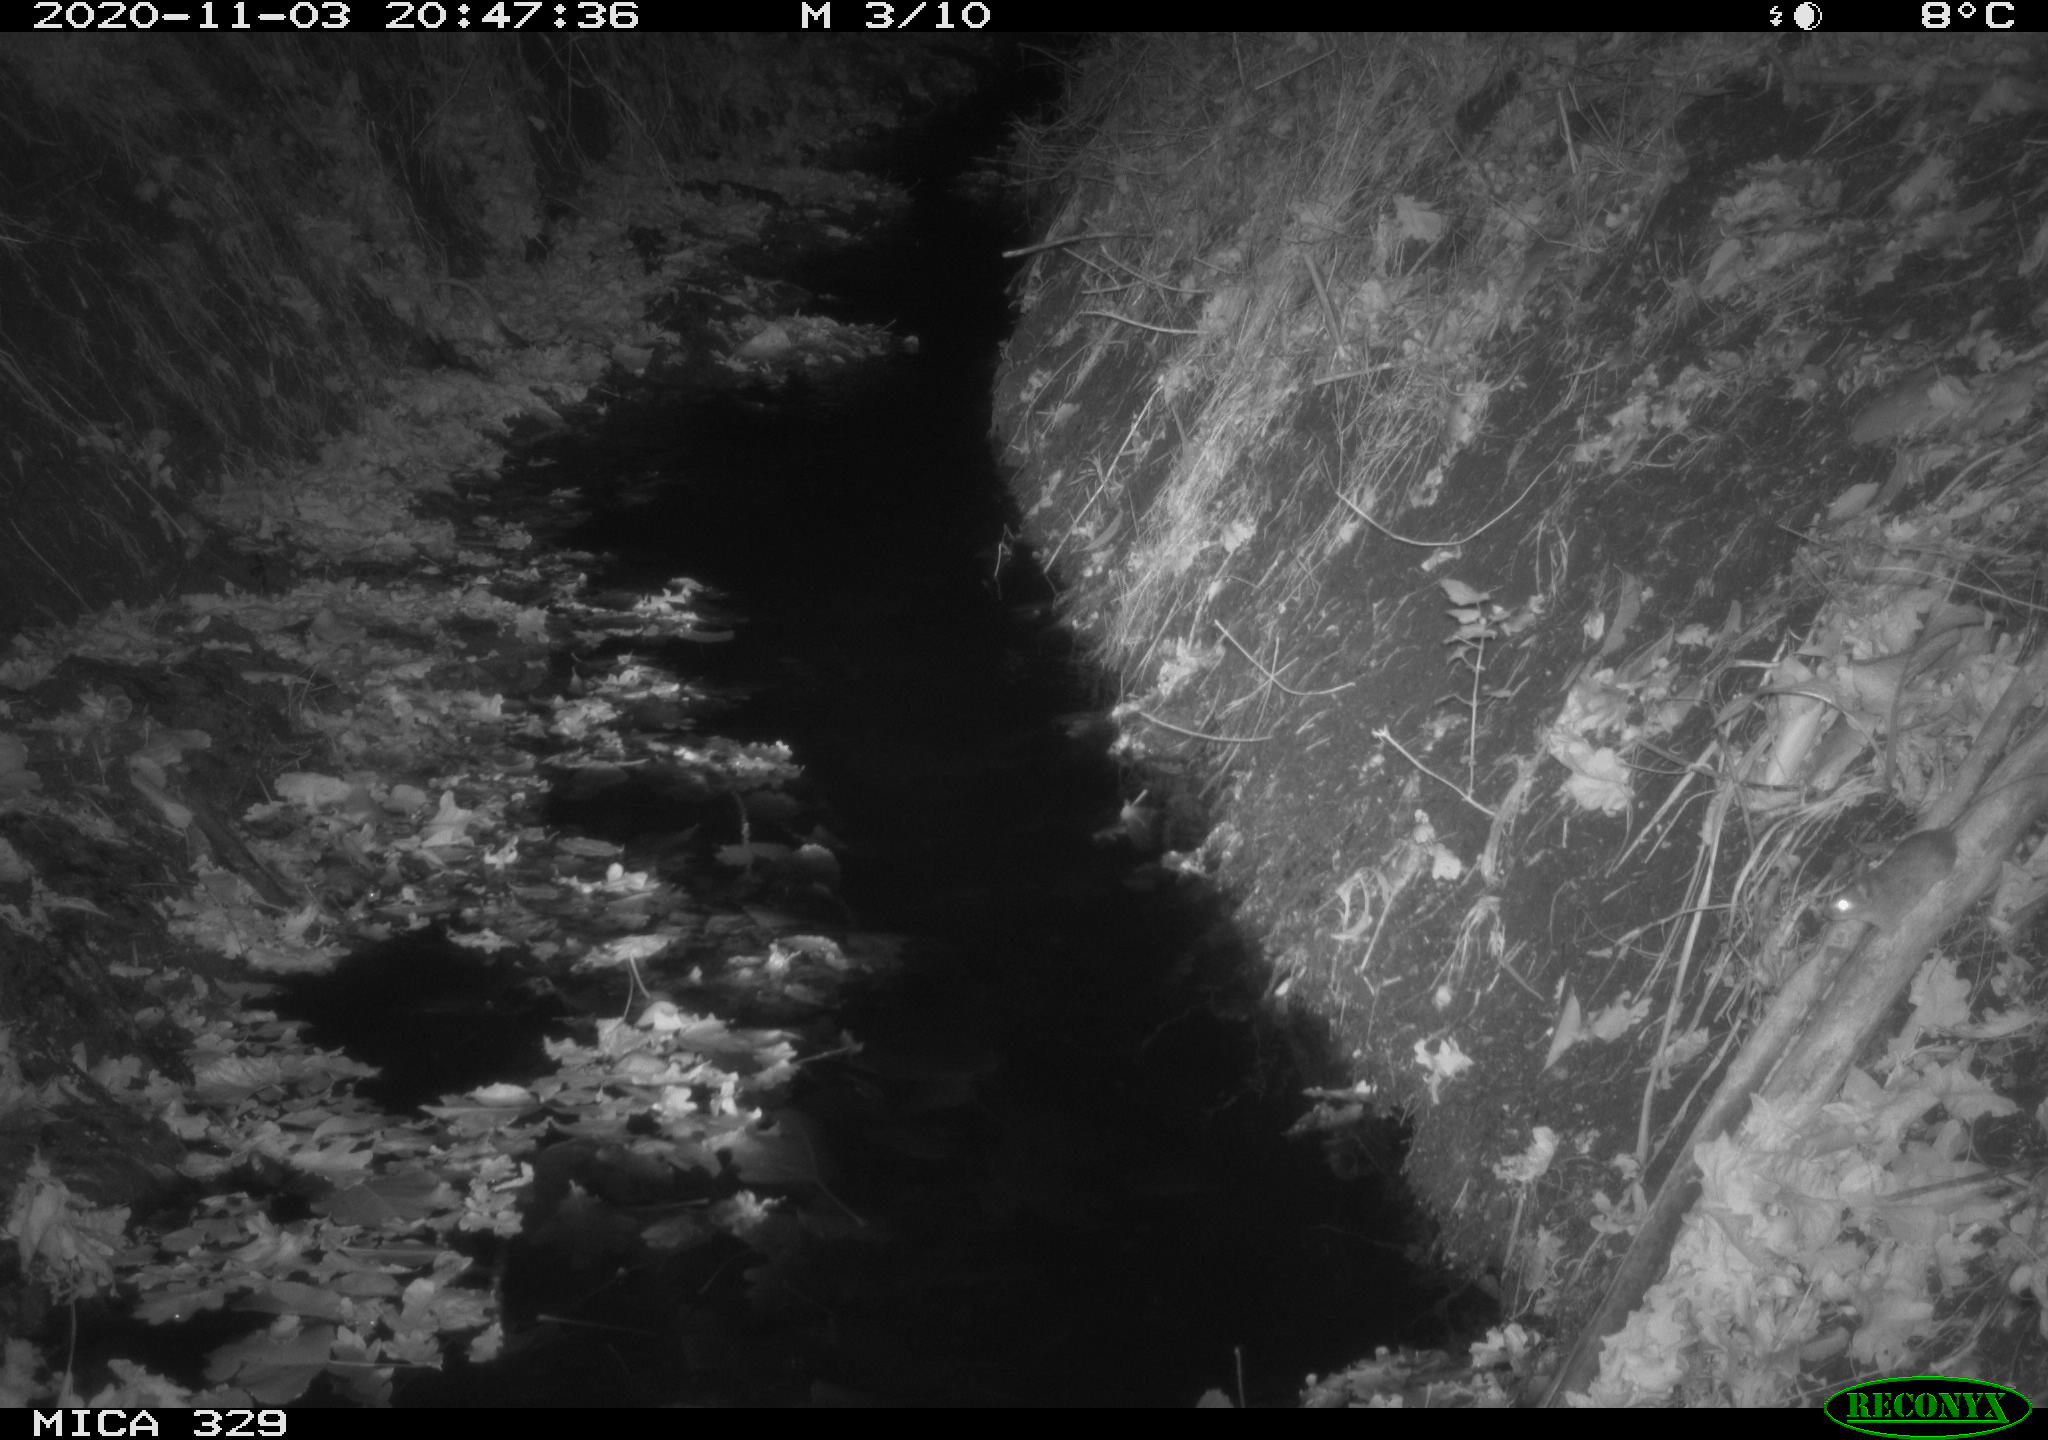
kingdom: Animalia
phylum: Chordata
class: Mammalia
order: Rodentia
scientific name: Rodentia
